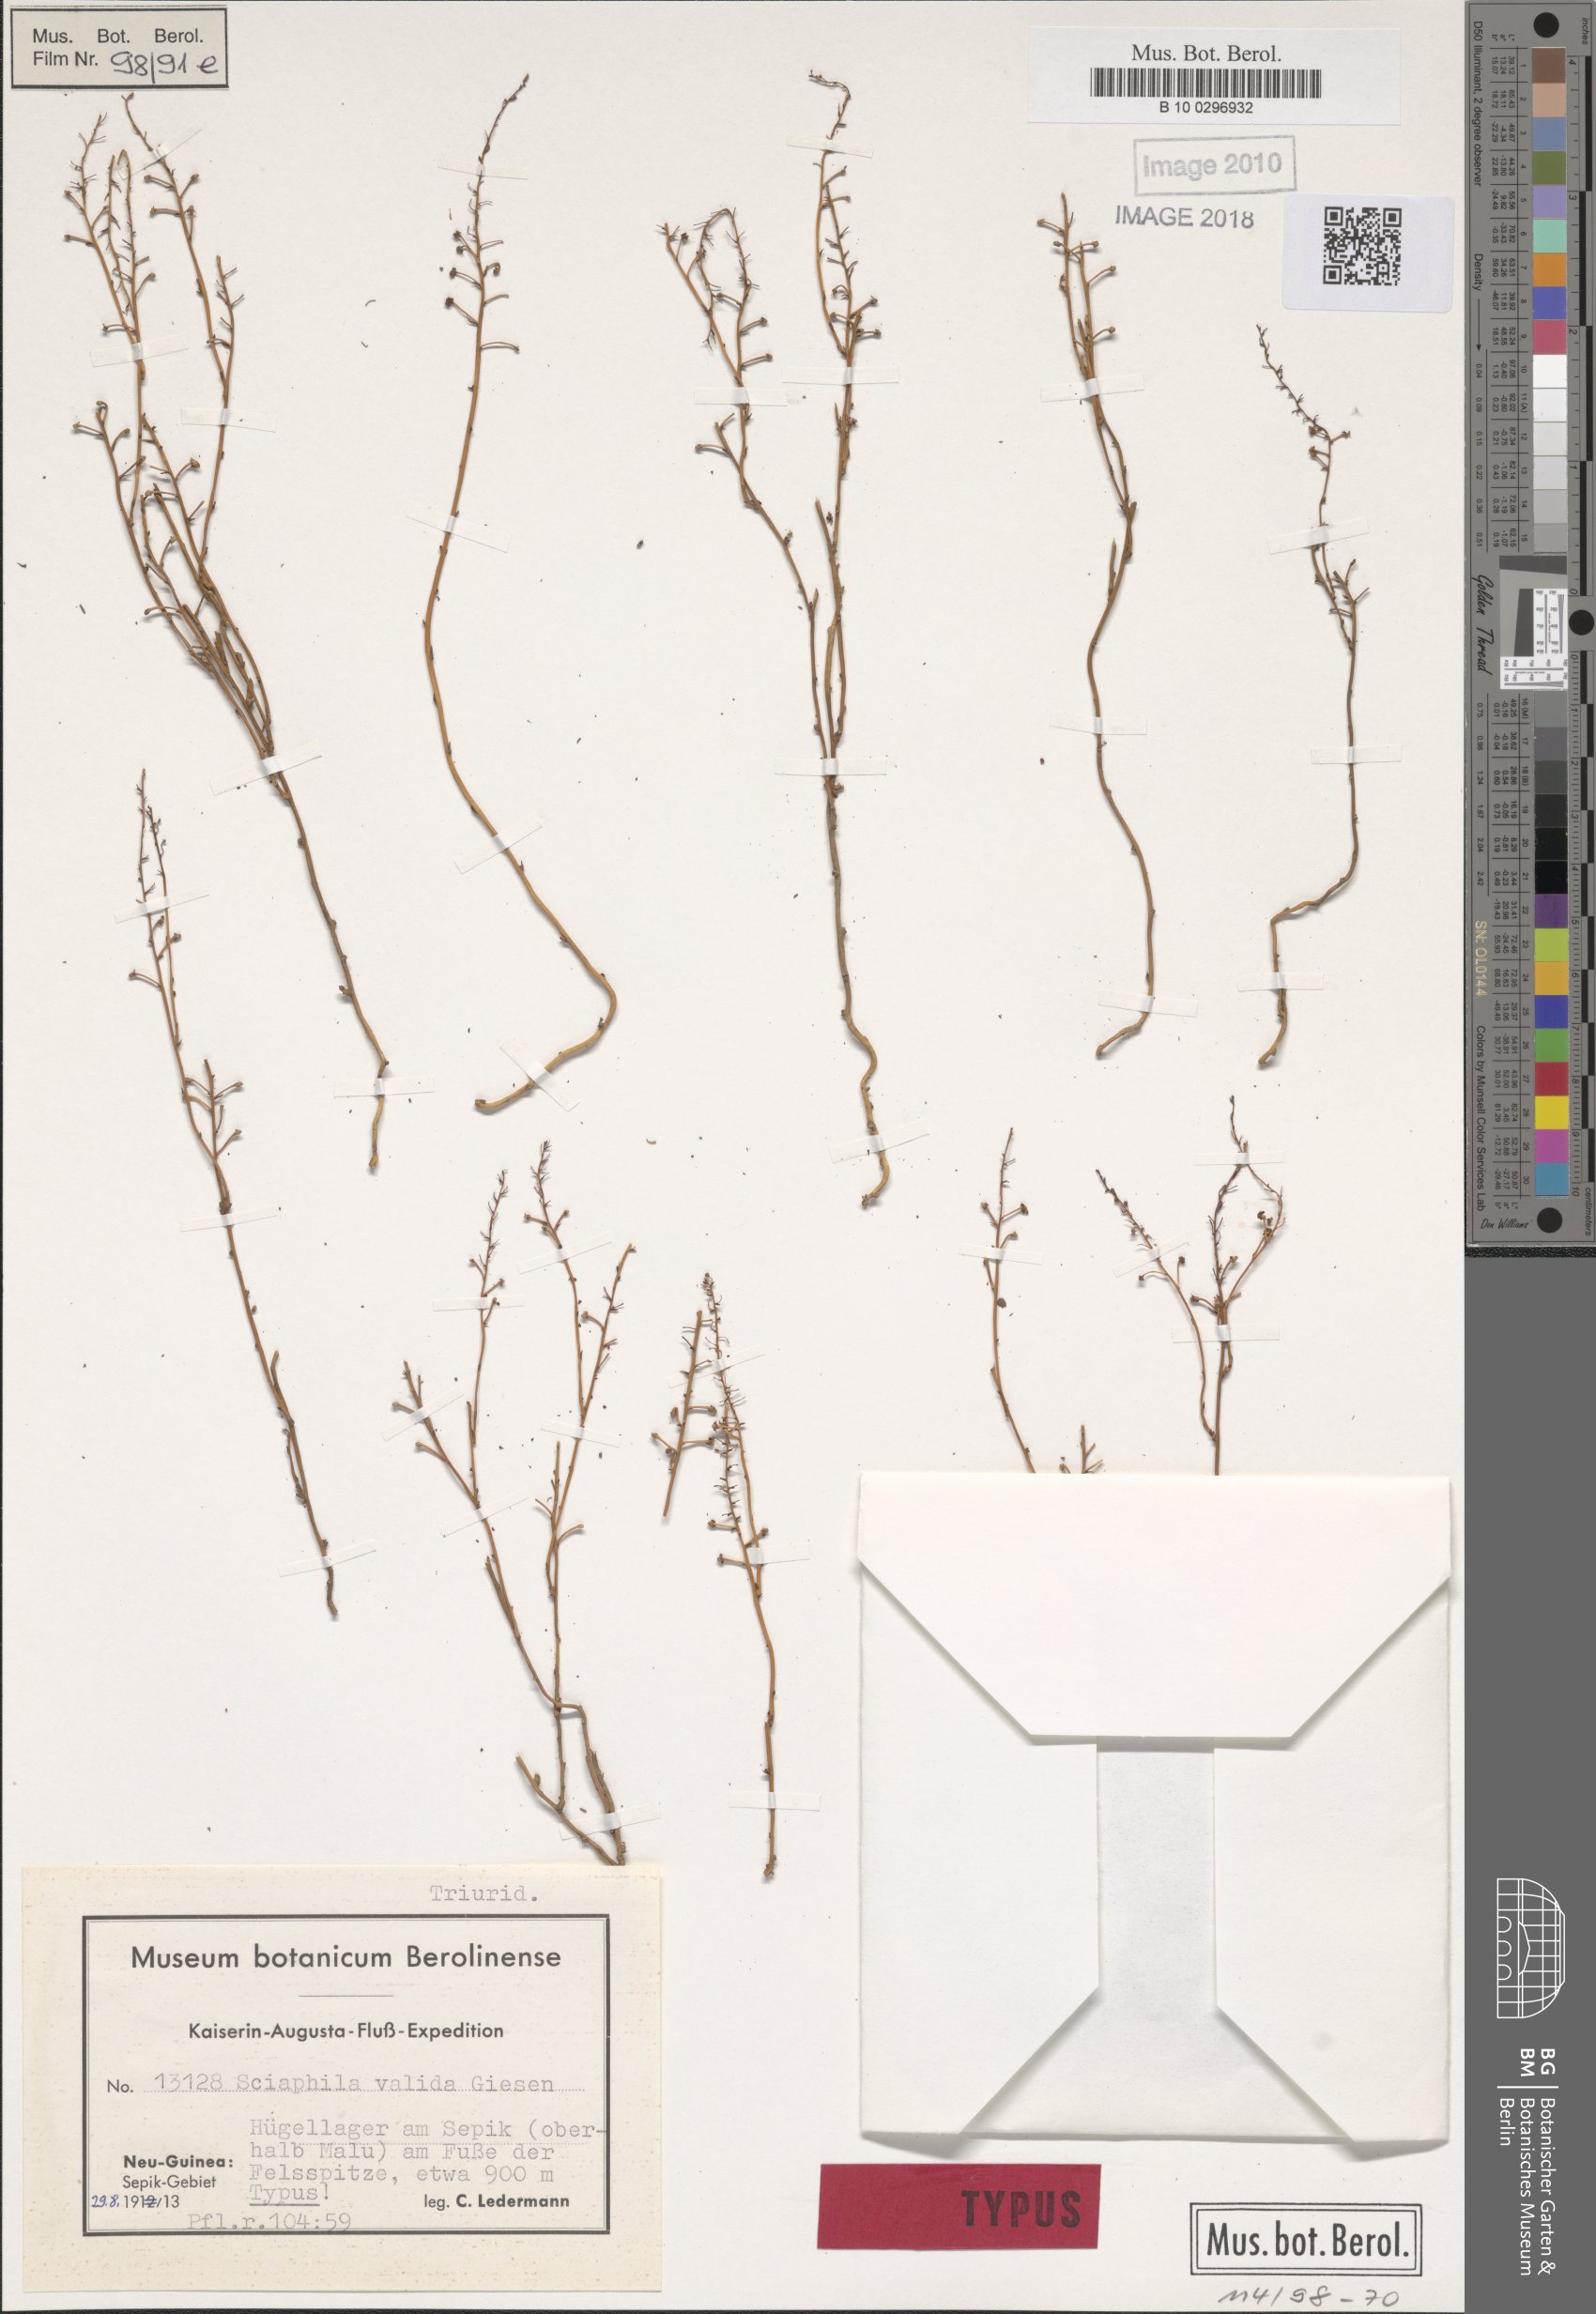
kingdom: Plantae
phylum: Tracheophyta
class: Liliopsida
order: Pandanales
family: Triuridaceae
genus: Sciaphila
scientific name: Sciaphila arfakiana
